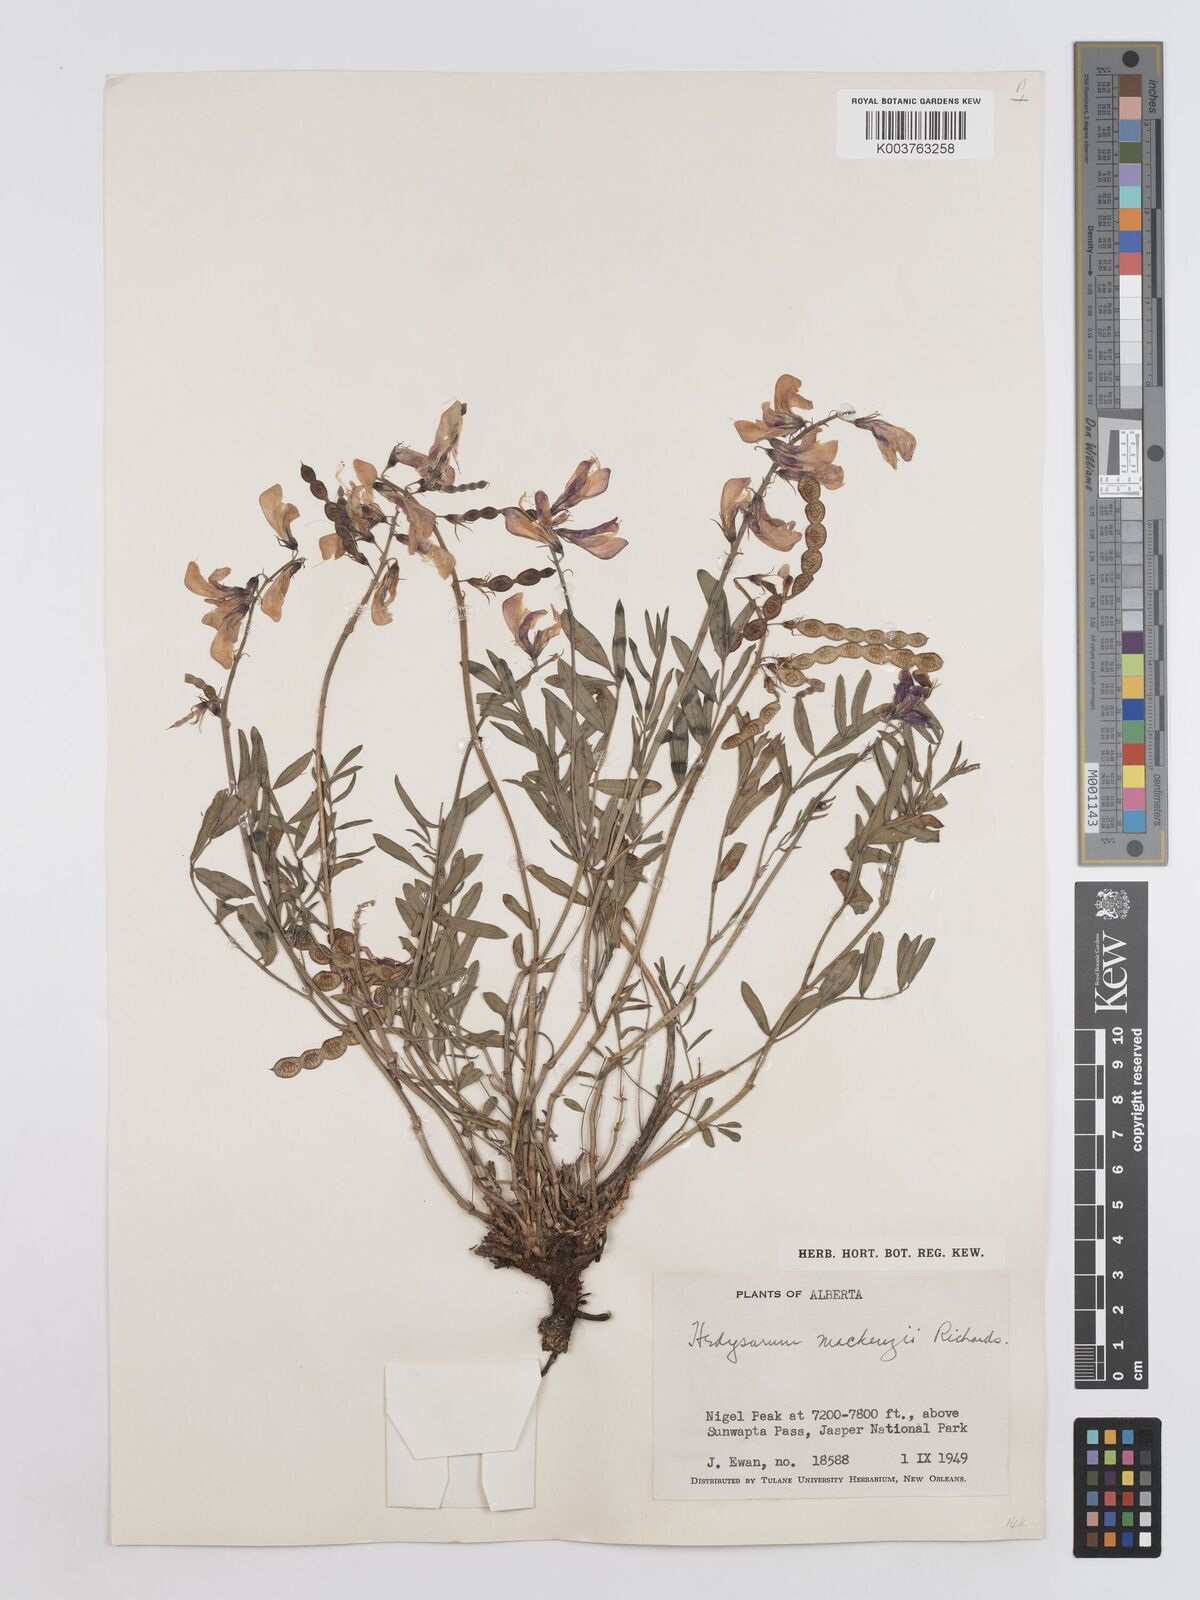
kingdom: Plantae
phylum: Tracheophyta
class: Magnoliopsida
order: Fabales
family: Fabaceae
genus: Hedysarum
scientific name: Hedysarum boreale
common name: Northern sweet-vetch
